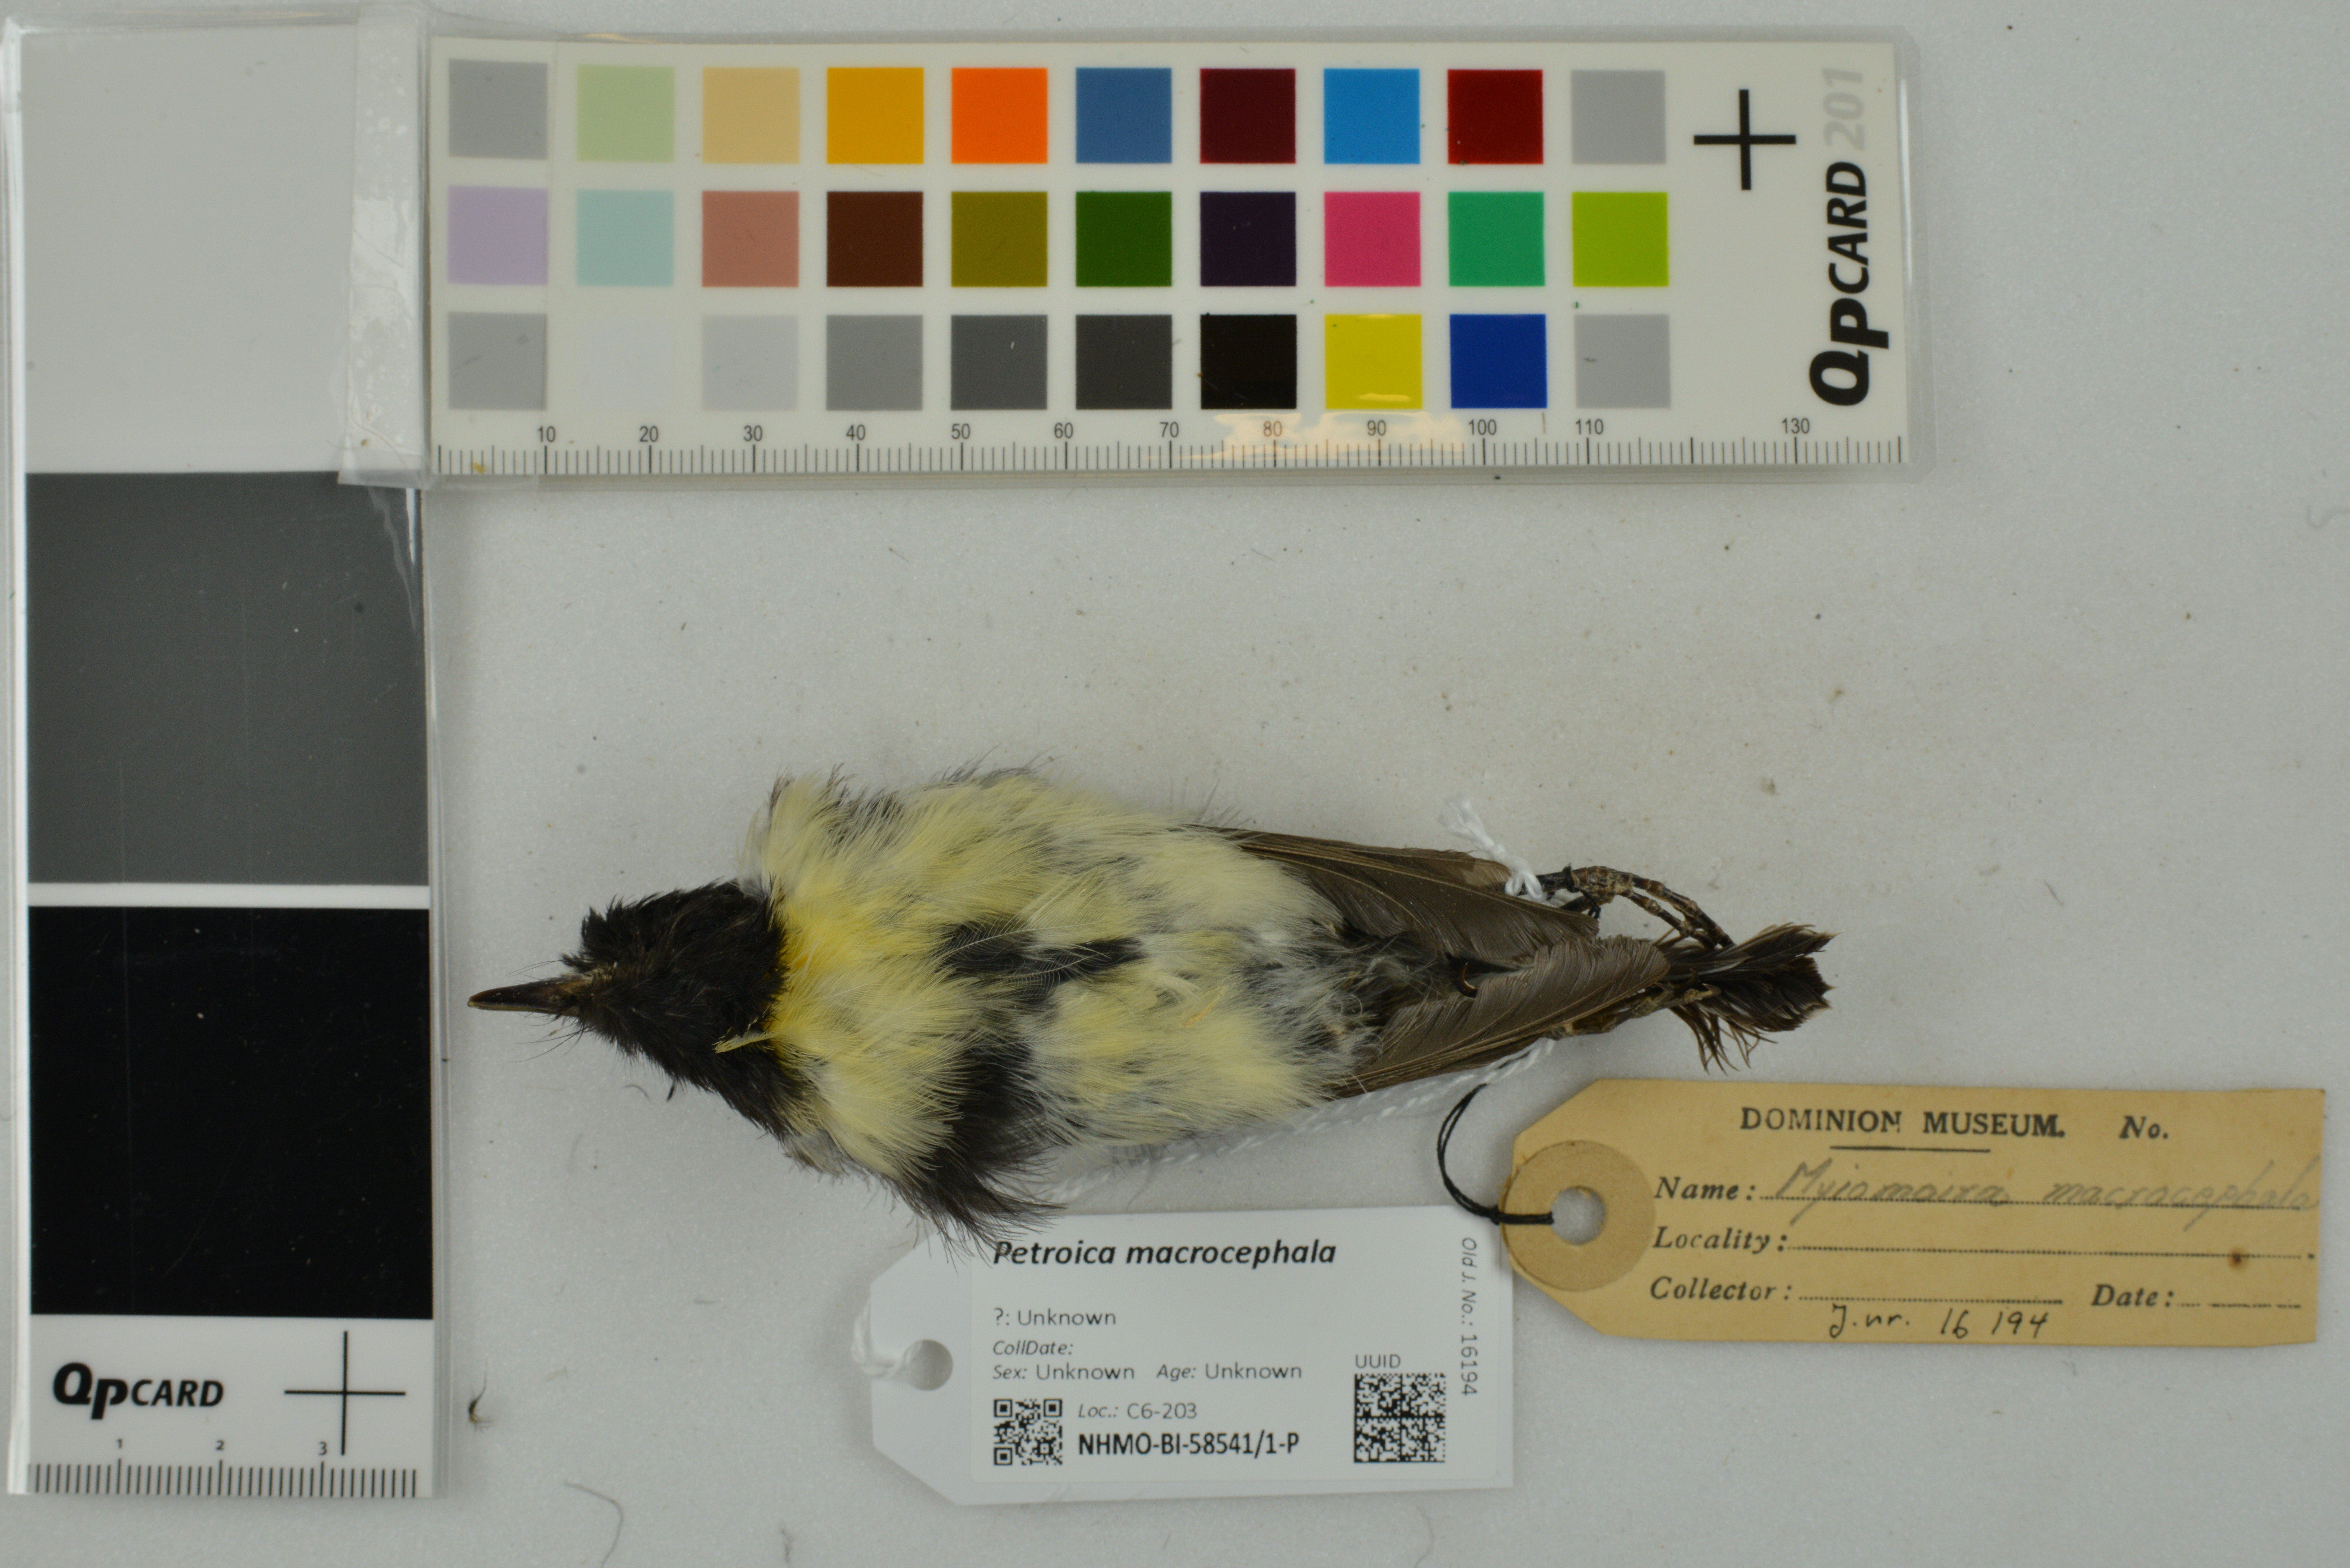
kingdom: Animalia
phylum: Chordata
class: Aves
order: Passeriformes
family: Petroicidae
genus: Petroica
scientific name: Petroica macrocephala
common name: Tomtit
